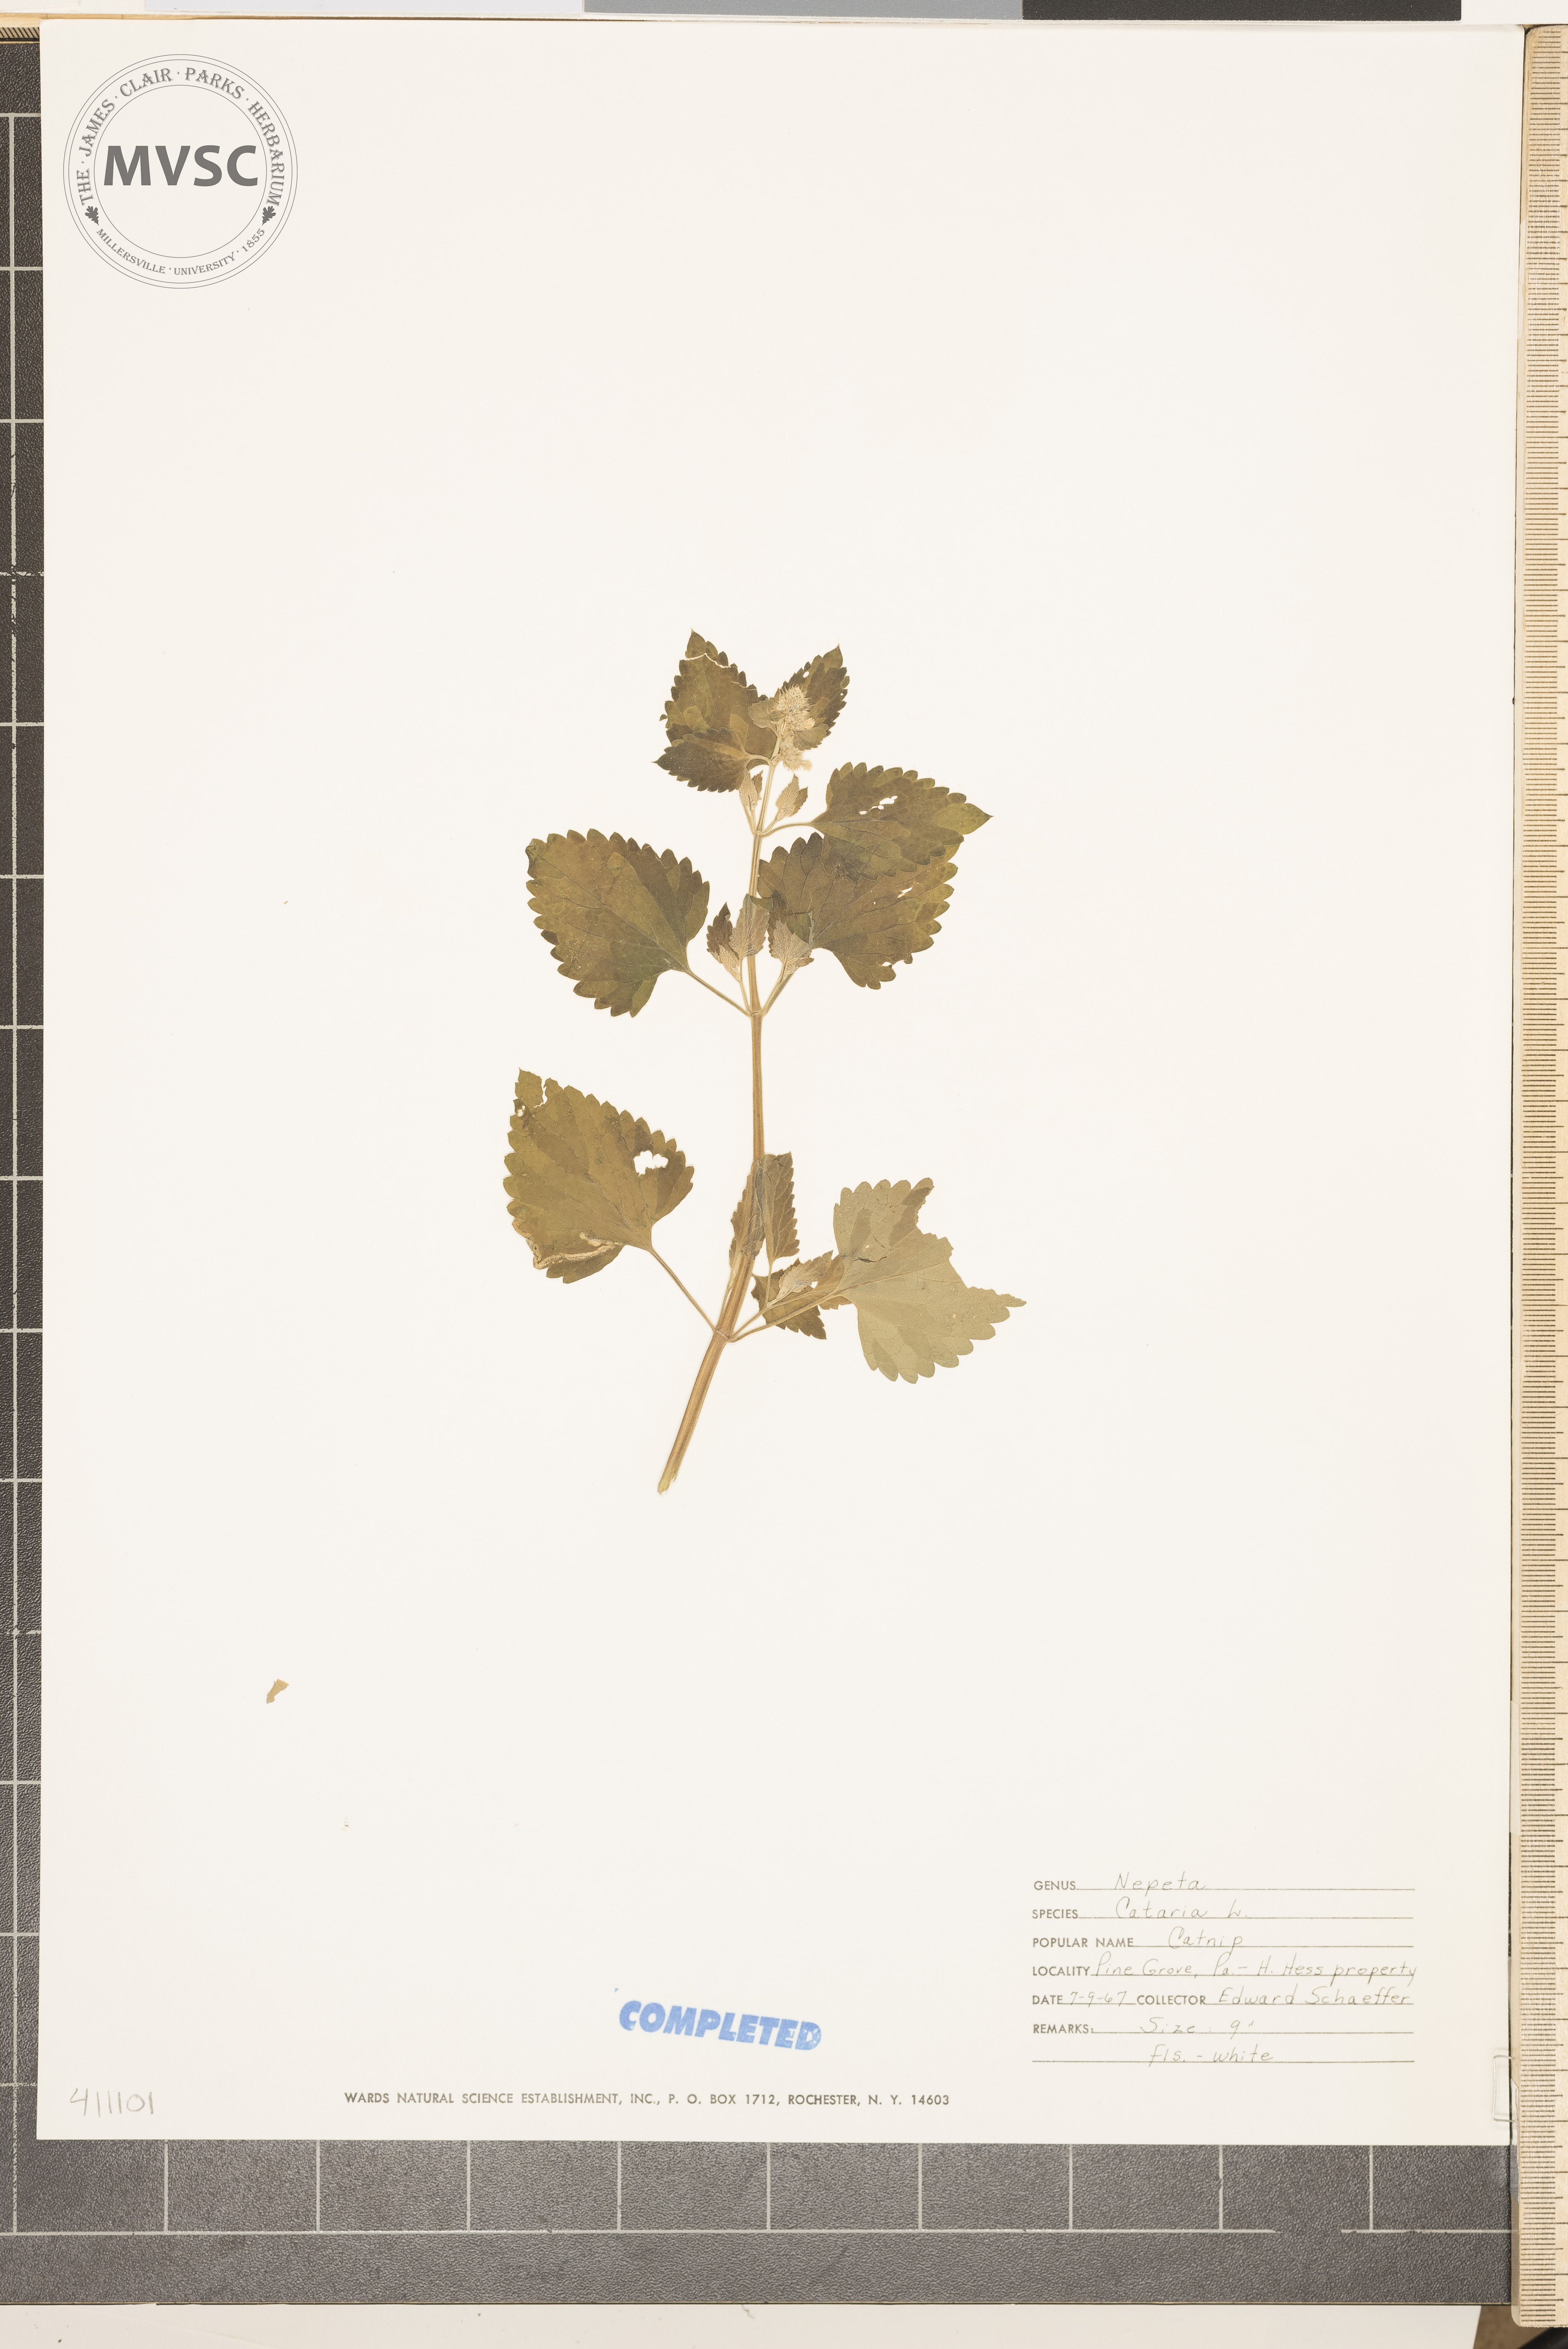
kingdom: Plantae
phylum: Tracheophyta
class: Magnoliopsida
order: Lamiales
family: Lamiaceae
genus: Nepeta
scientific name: Nepeta cataria
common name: Catnip
